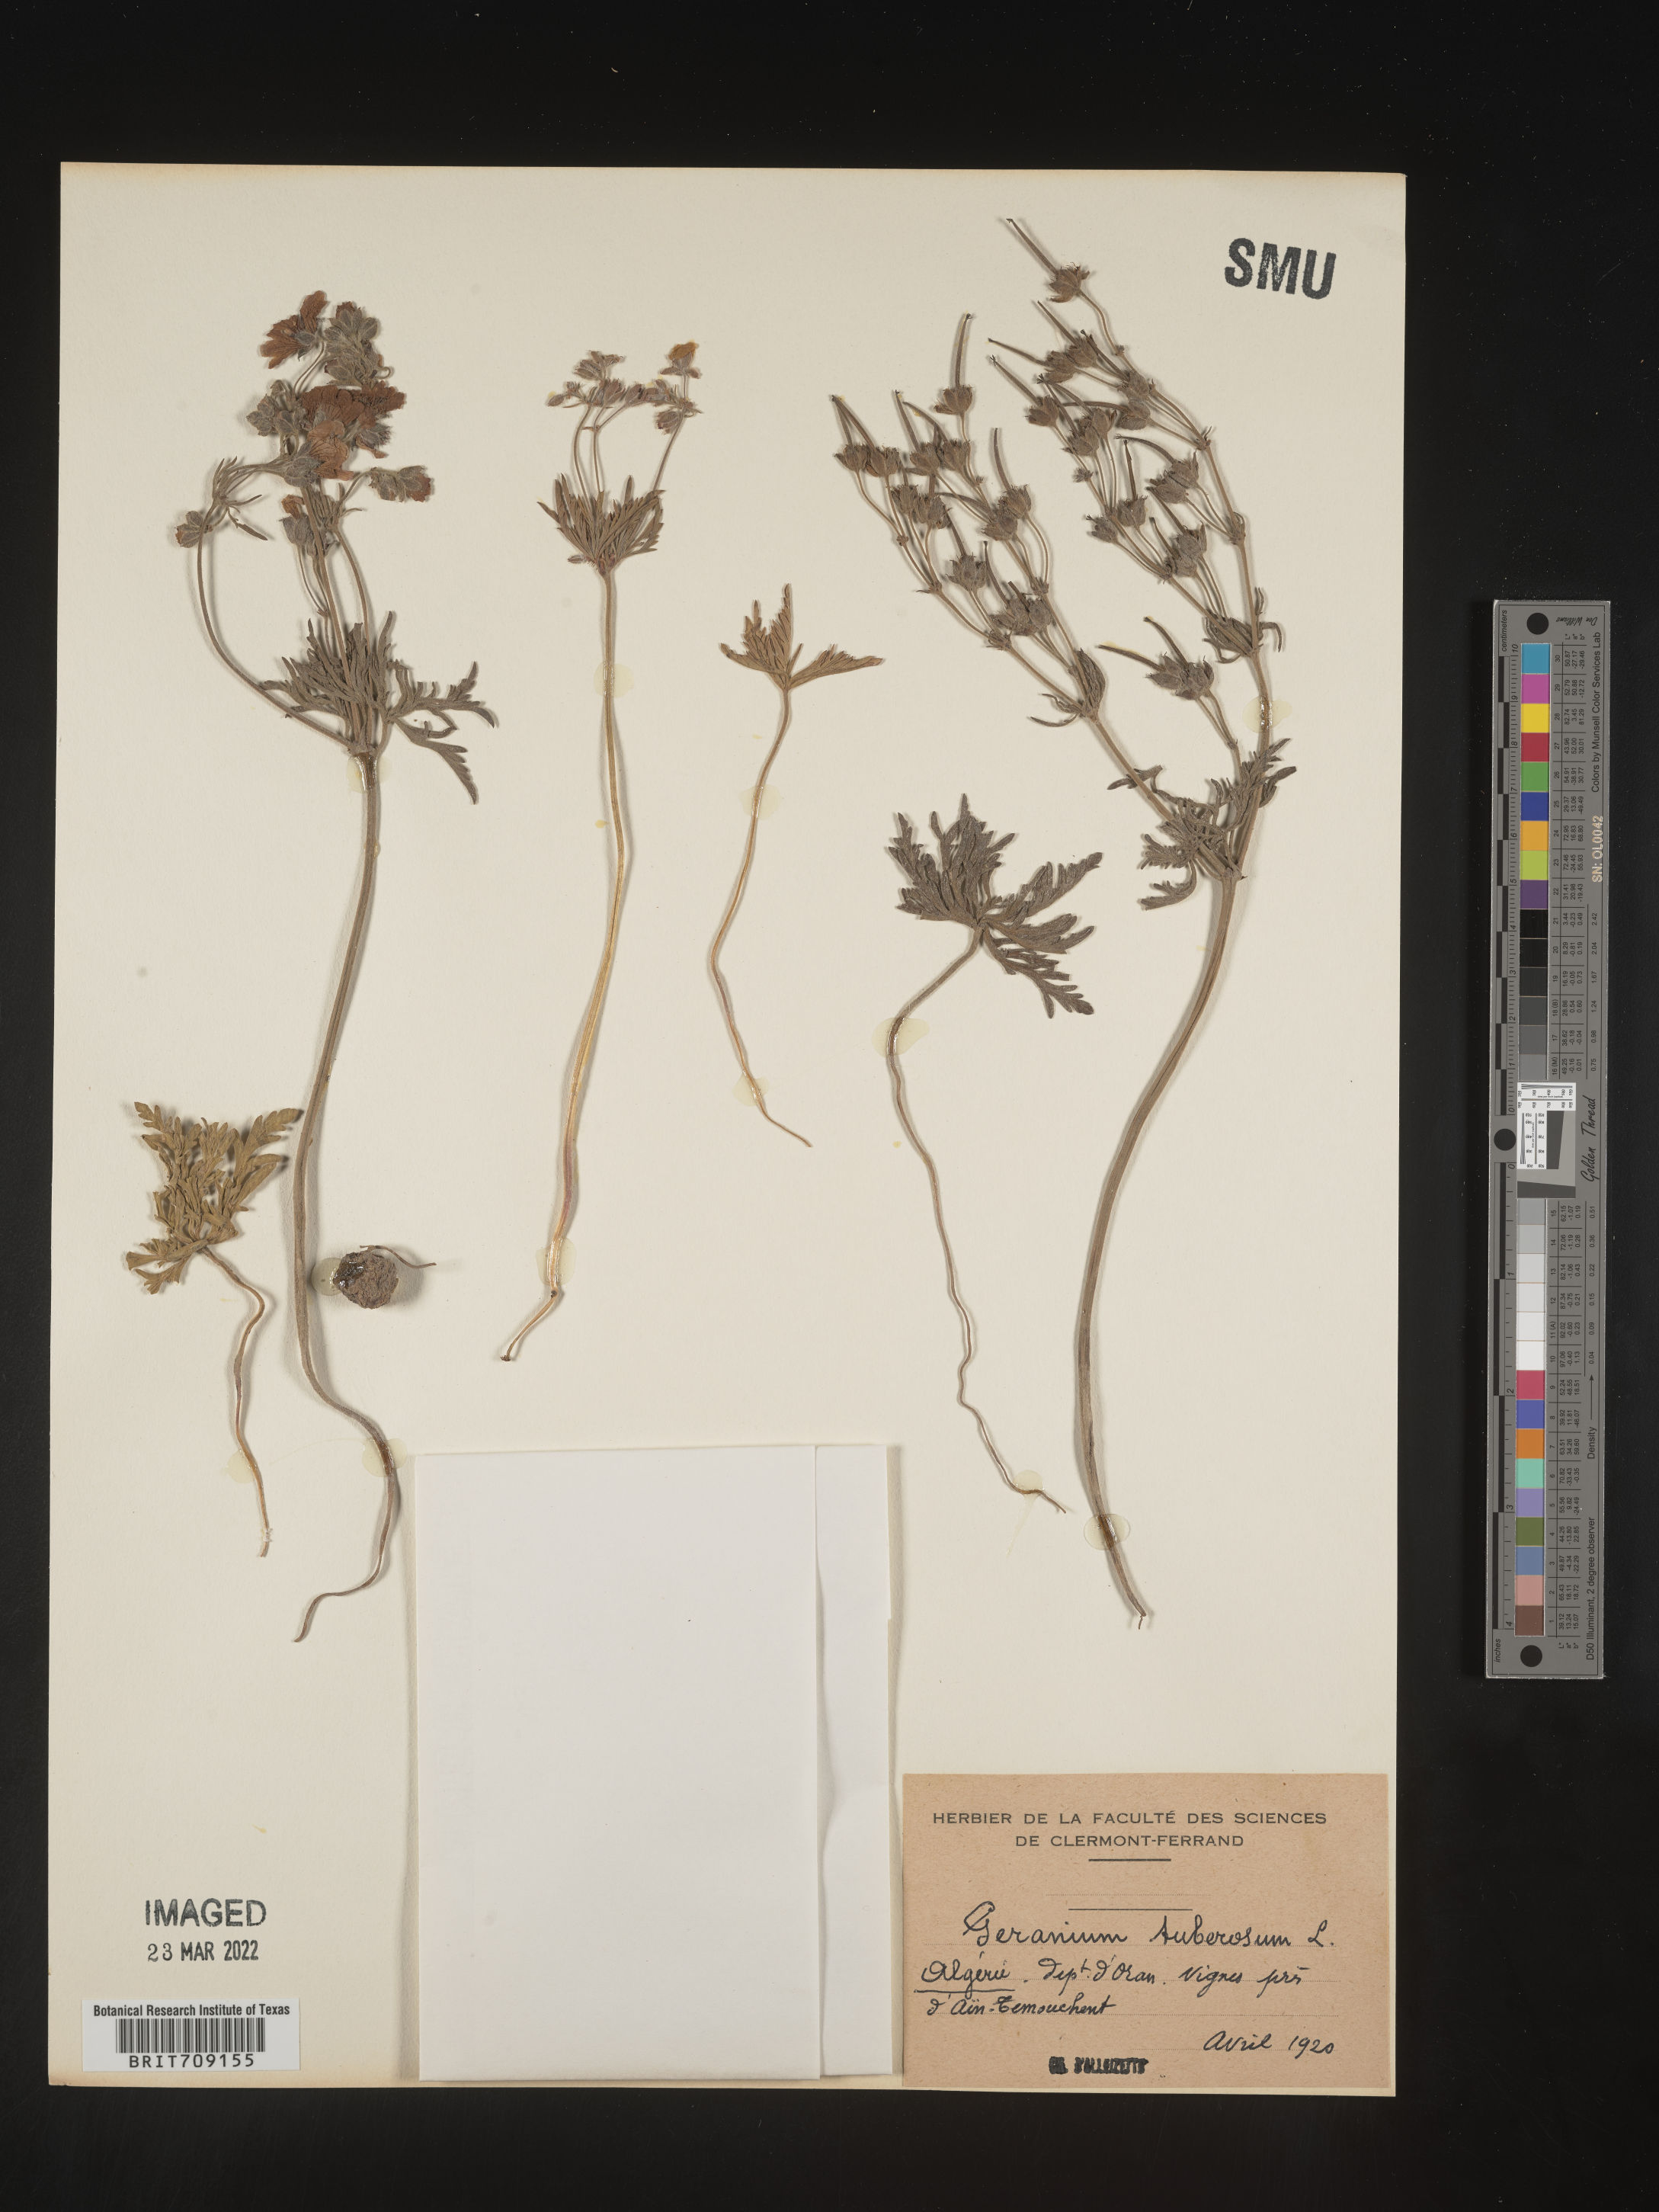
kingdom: Plantae
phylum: Tracheophyta
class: Magnoliopsida
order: Geraniales
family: Geraniaceae
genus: Geranium
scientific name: Geranium
